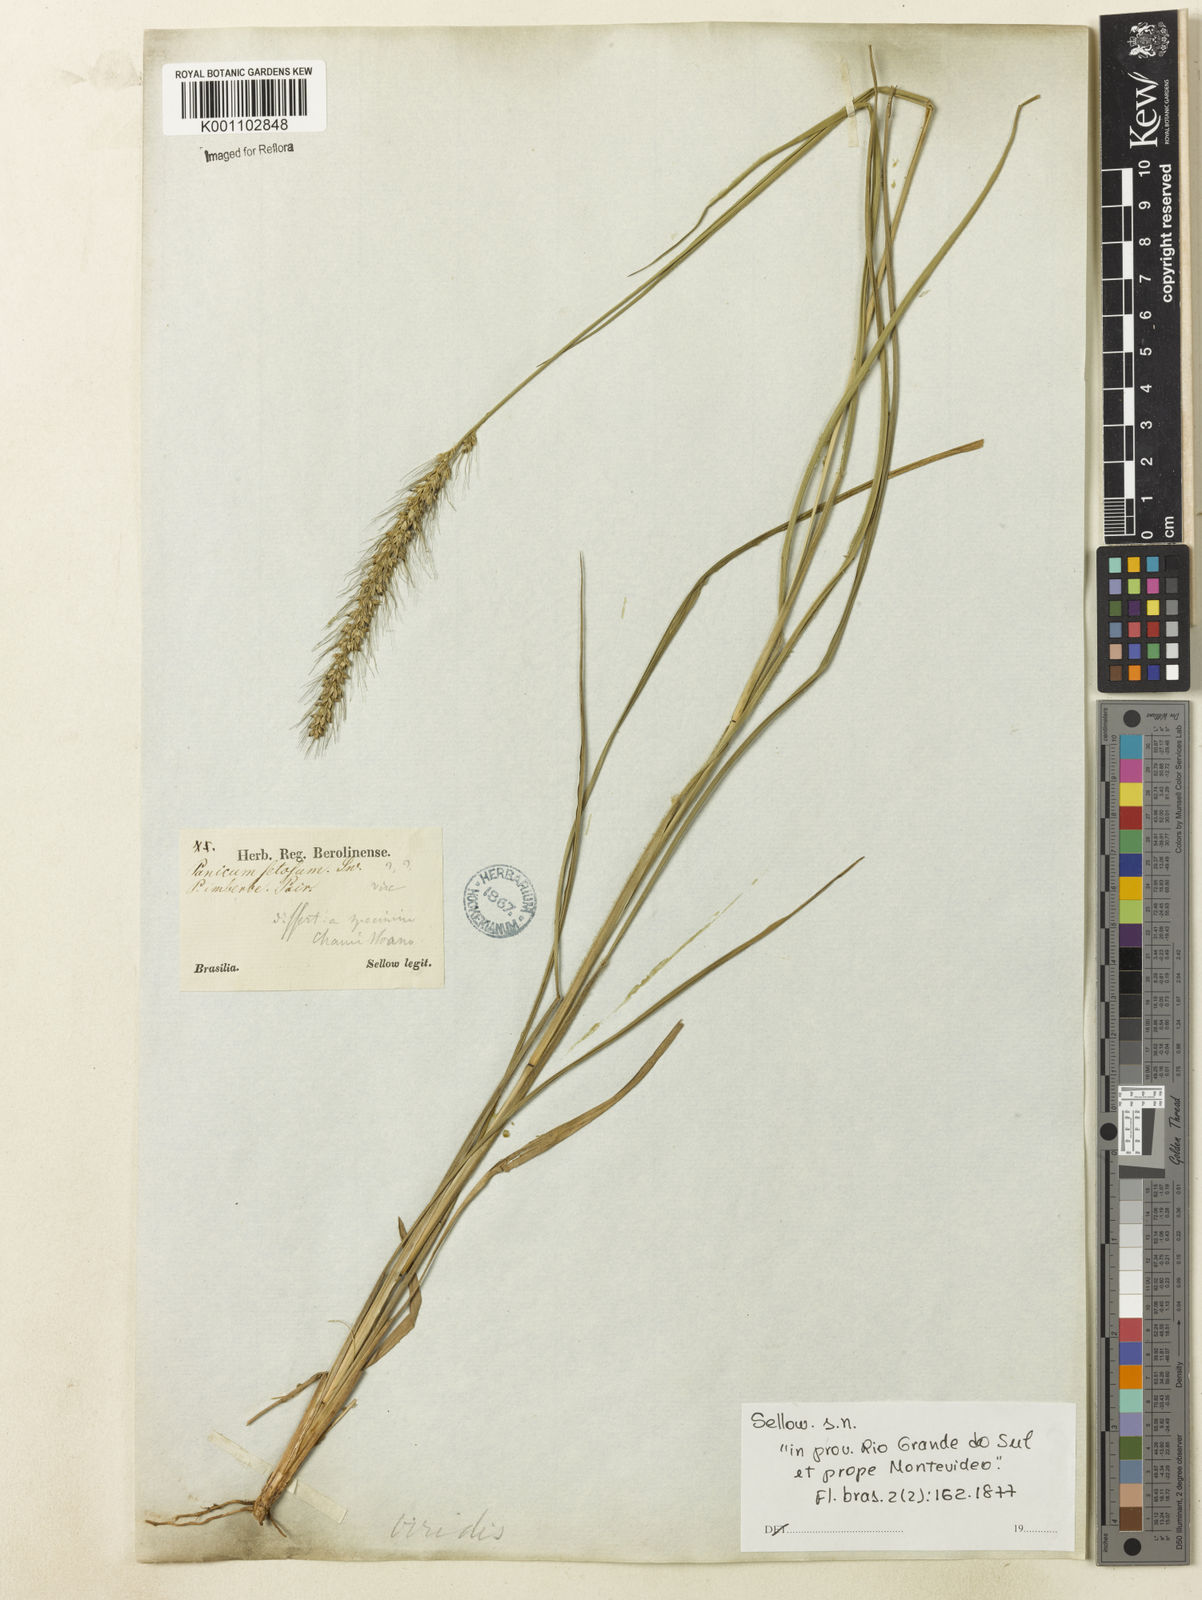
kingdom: Plantae
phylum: Tracheophyta
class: Liliopsida
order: Poales
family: Poaceae
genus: Setaria
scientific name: Setaria scabrifolia
